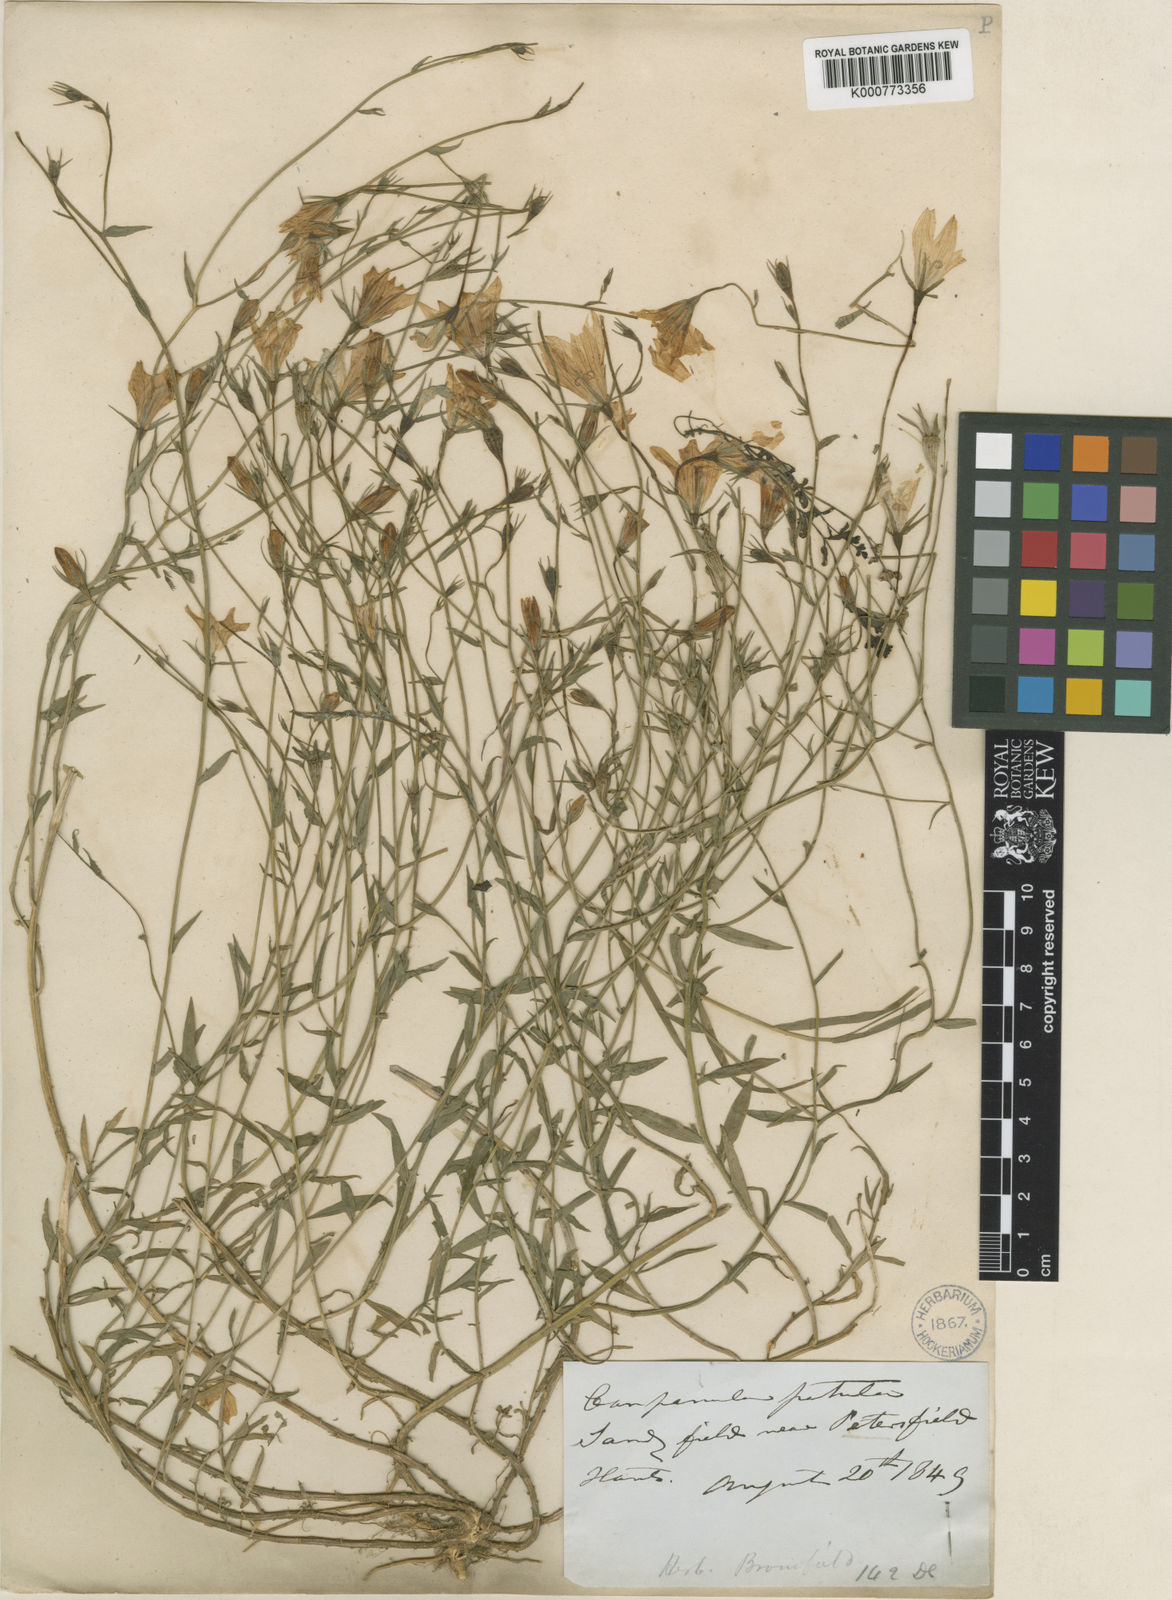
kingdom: Plantae
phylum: Tracheophyta
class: Magnoliopsida
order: Asterales
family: Campanulaceae
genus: Campanula
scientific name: Campanula patula
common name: Spreading bellflower
